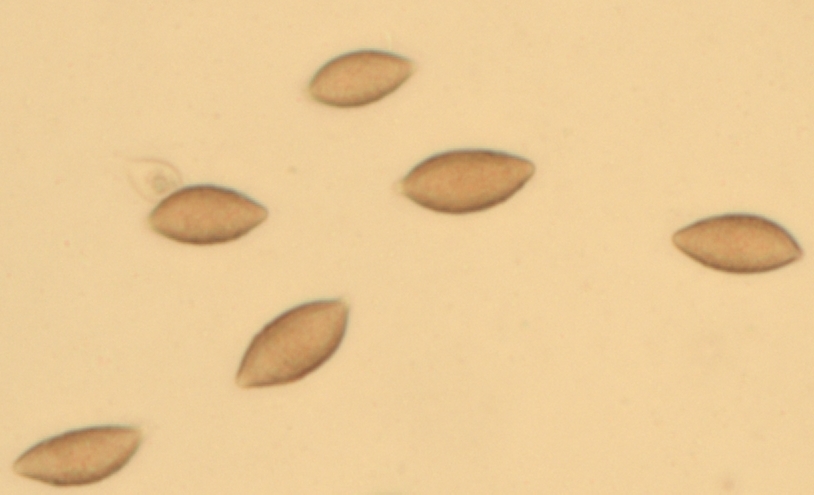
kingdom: Fungi
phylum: Basidiomycota
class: Agaricomycetes
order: Agaricales
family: Hymenogastraceae
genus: Naucoria
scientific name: Naucoria salicis
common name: pile-knaphat
